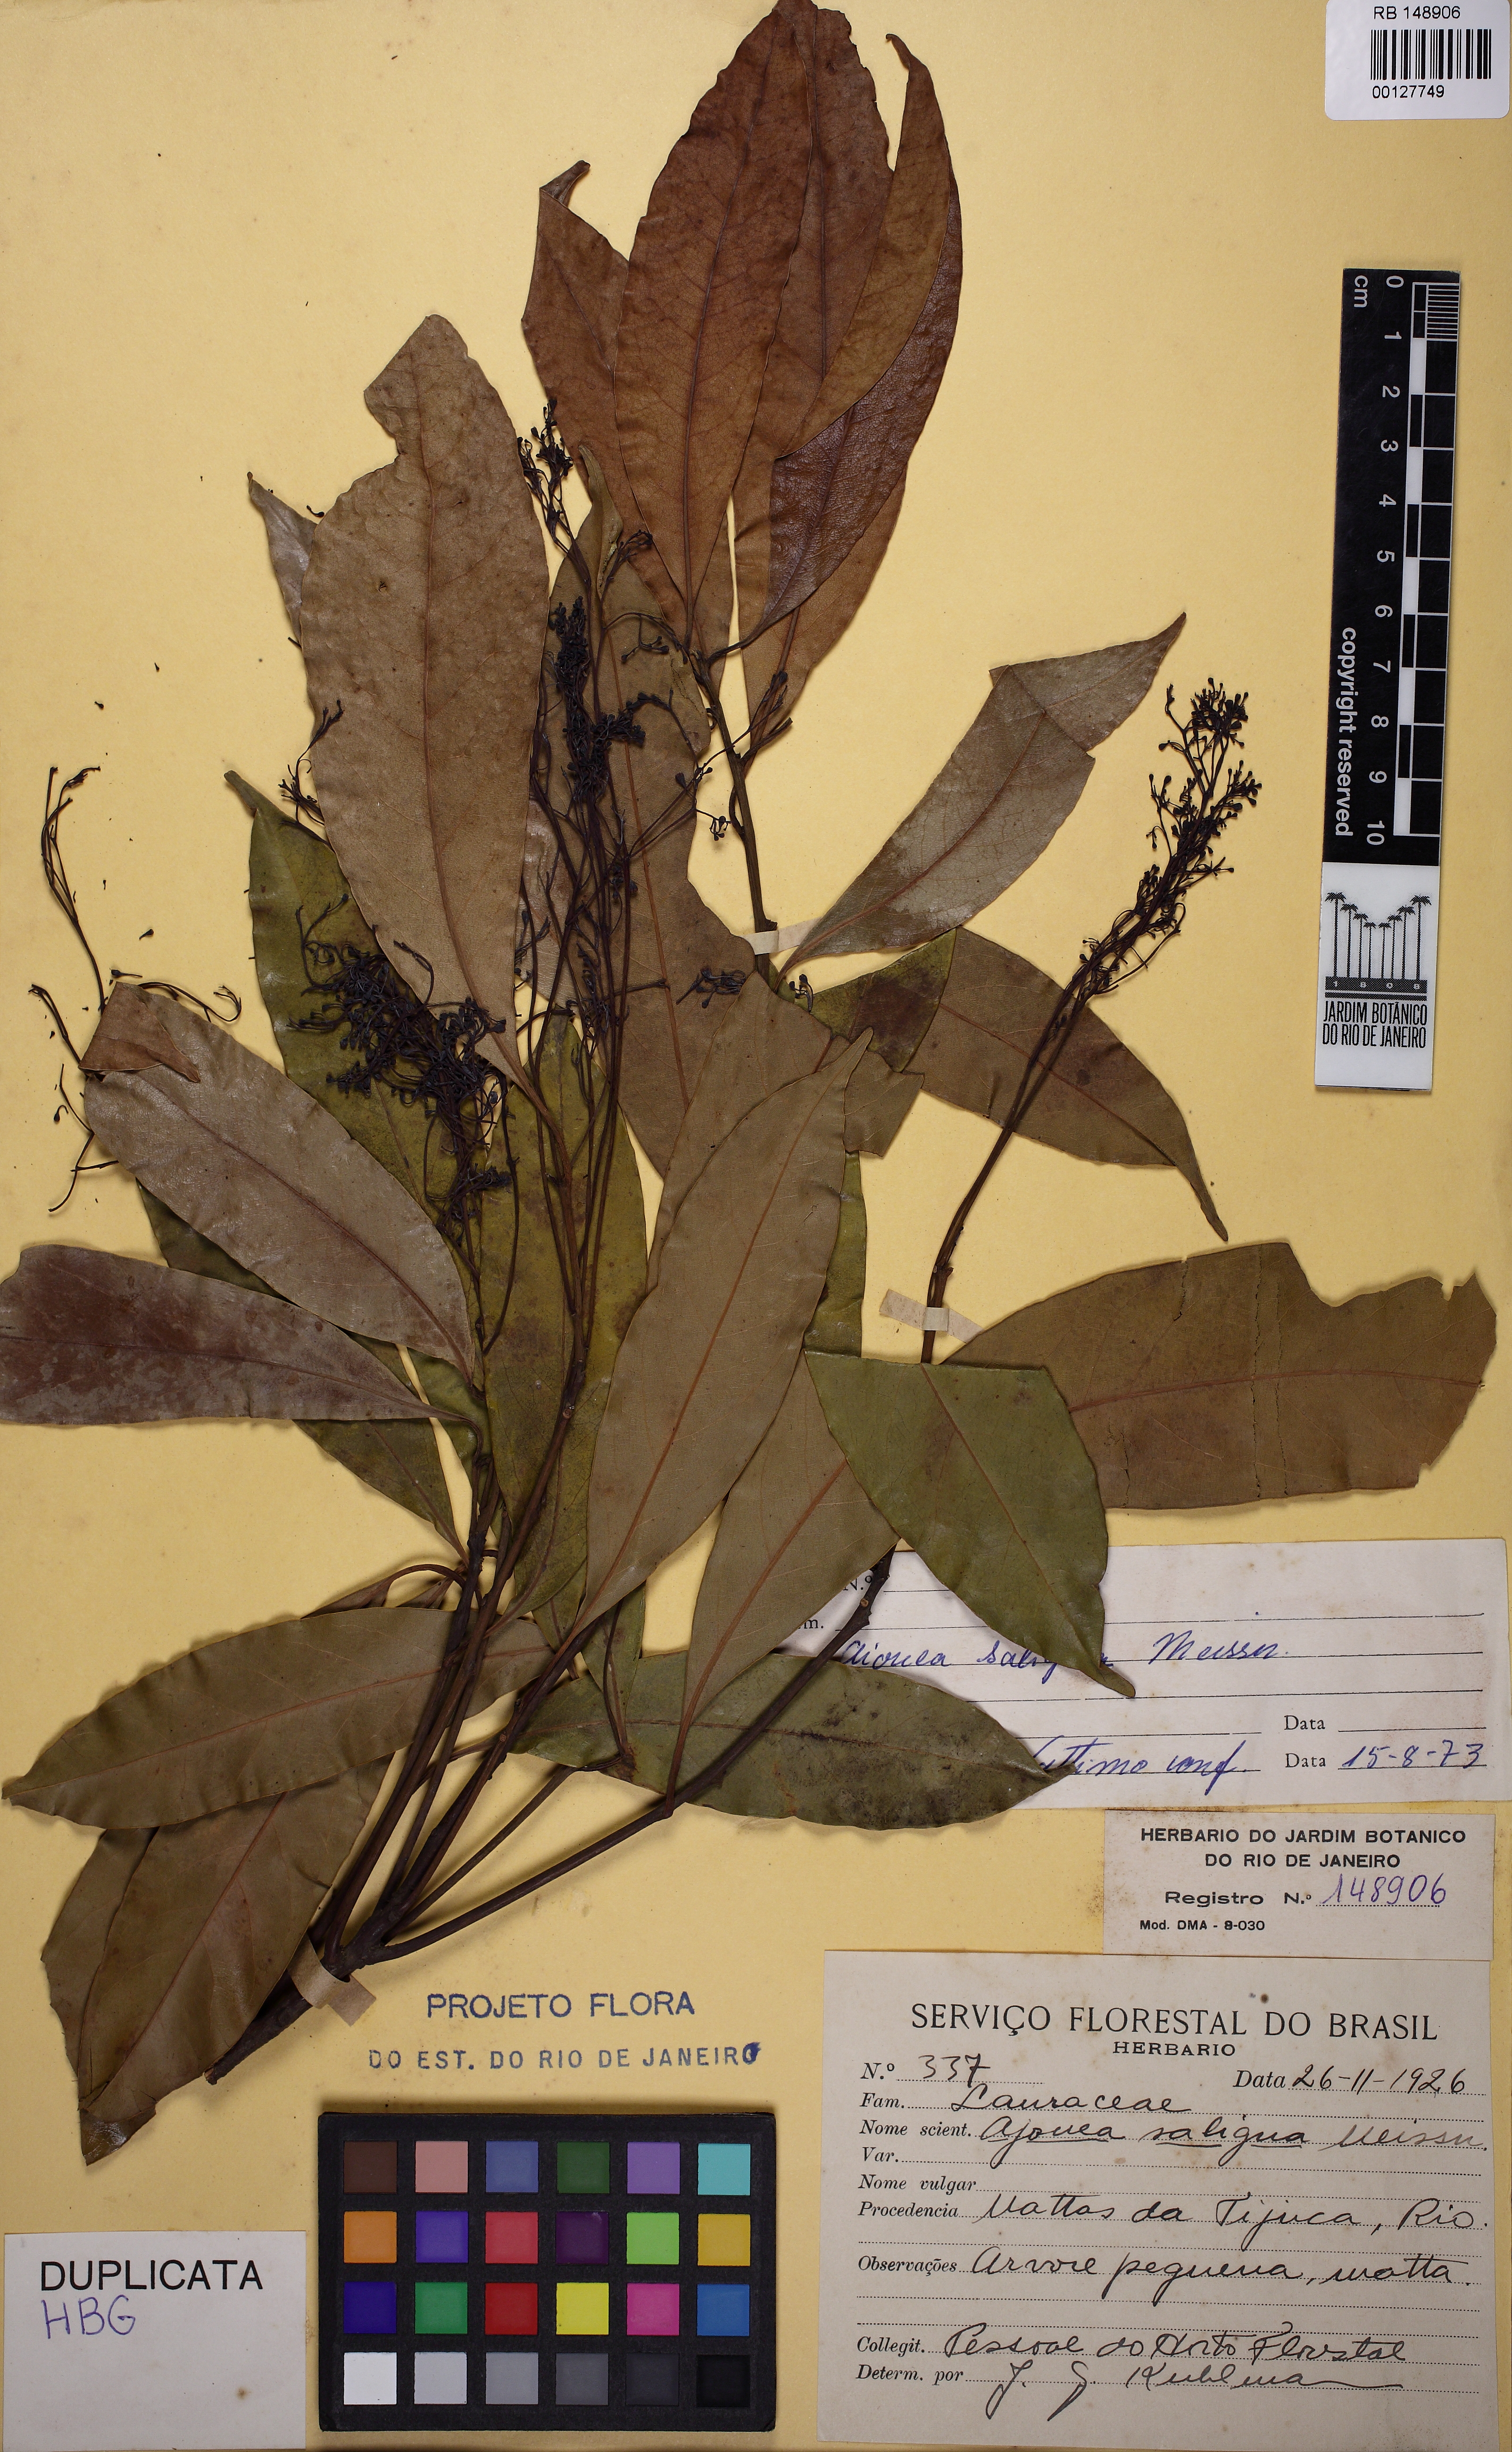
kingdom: Plantae
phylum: Tracheophyta
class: Magnoliopsida
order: Laurales
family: Lauraceae
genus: Aiouea
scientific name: Aiouea saligna
